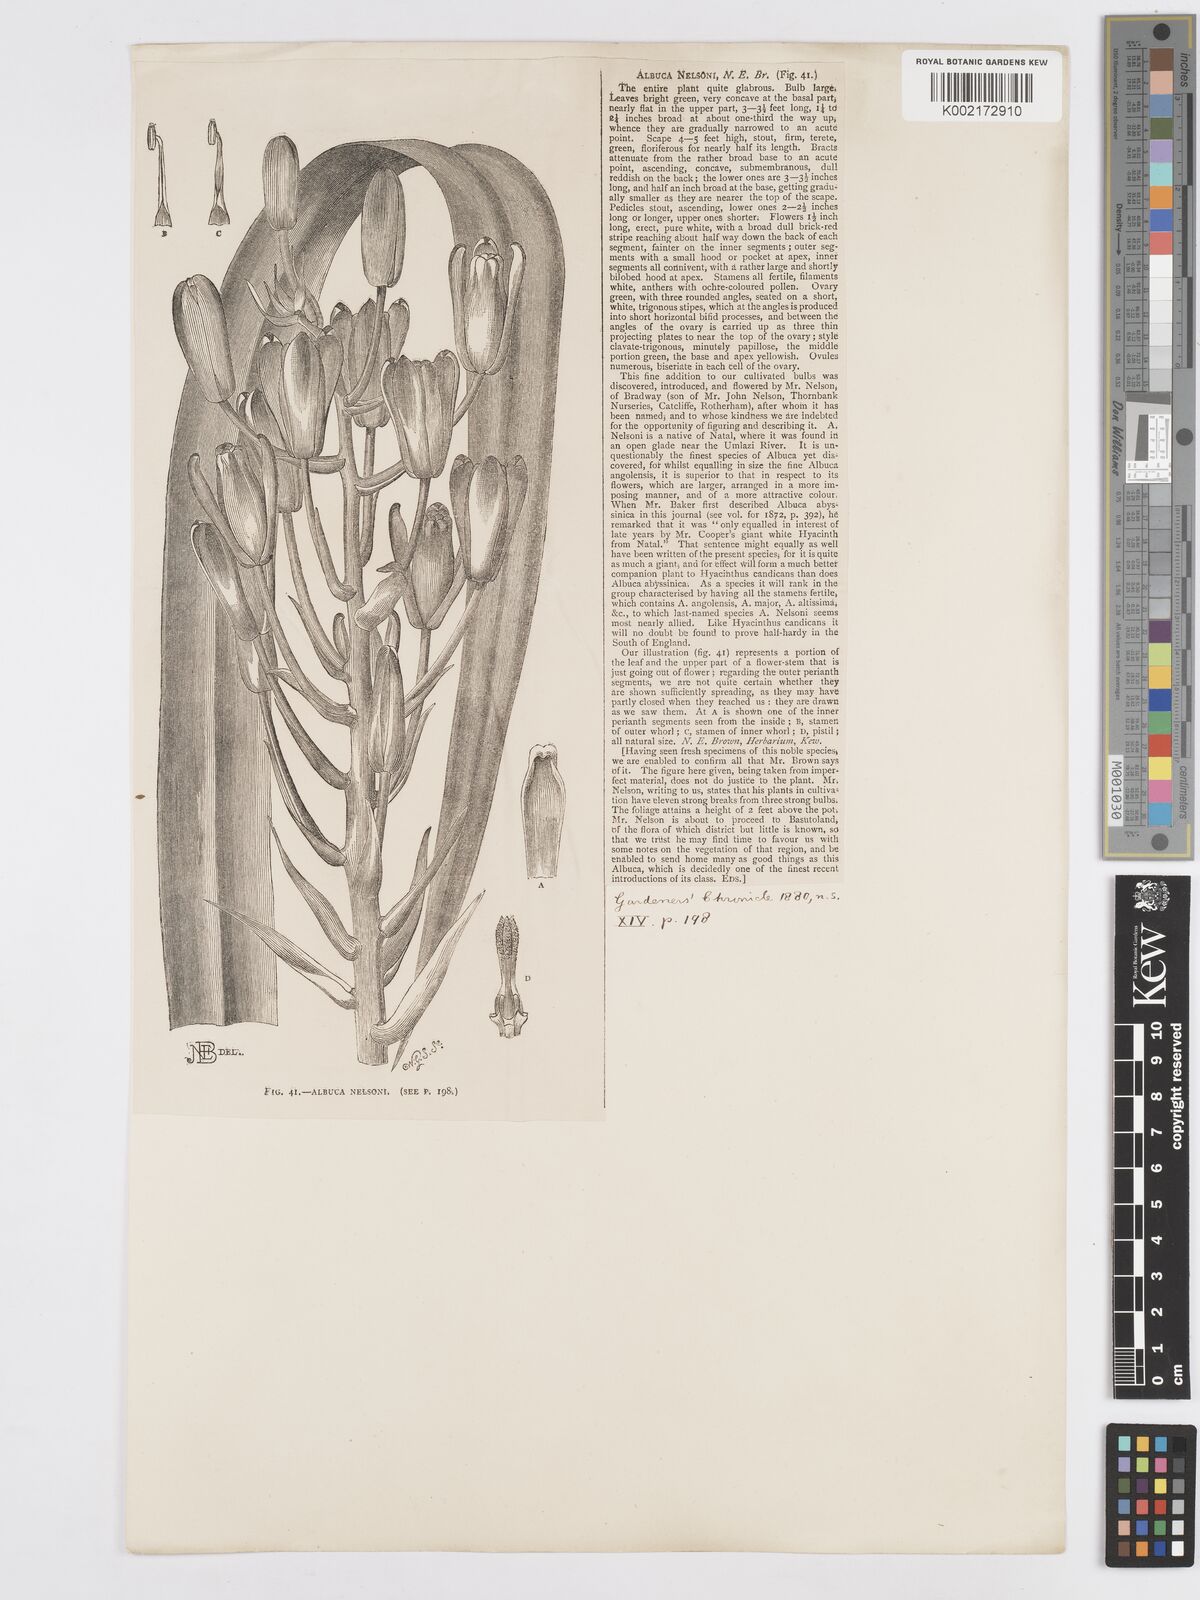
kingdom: Plantae
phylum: Tracheophyta
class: Liliopsida
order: Asparagales
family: Asparagaceae
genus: Albuca
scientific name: Albuca nelsonii
